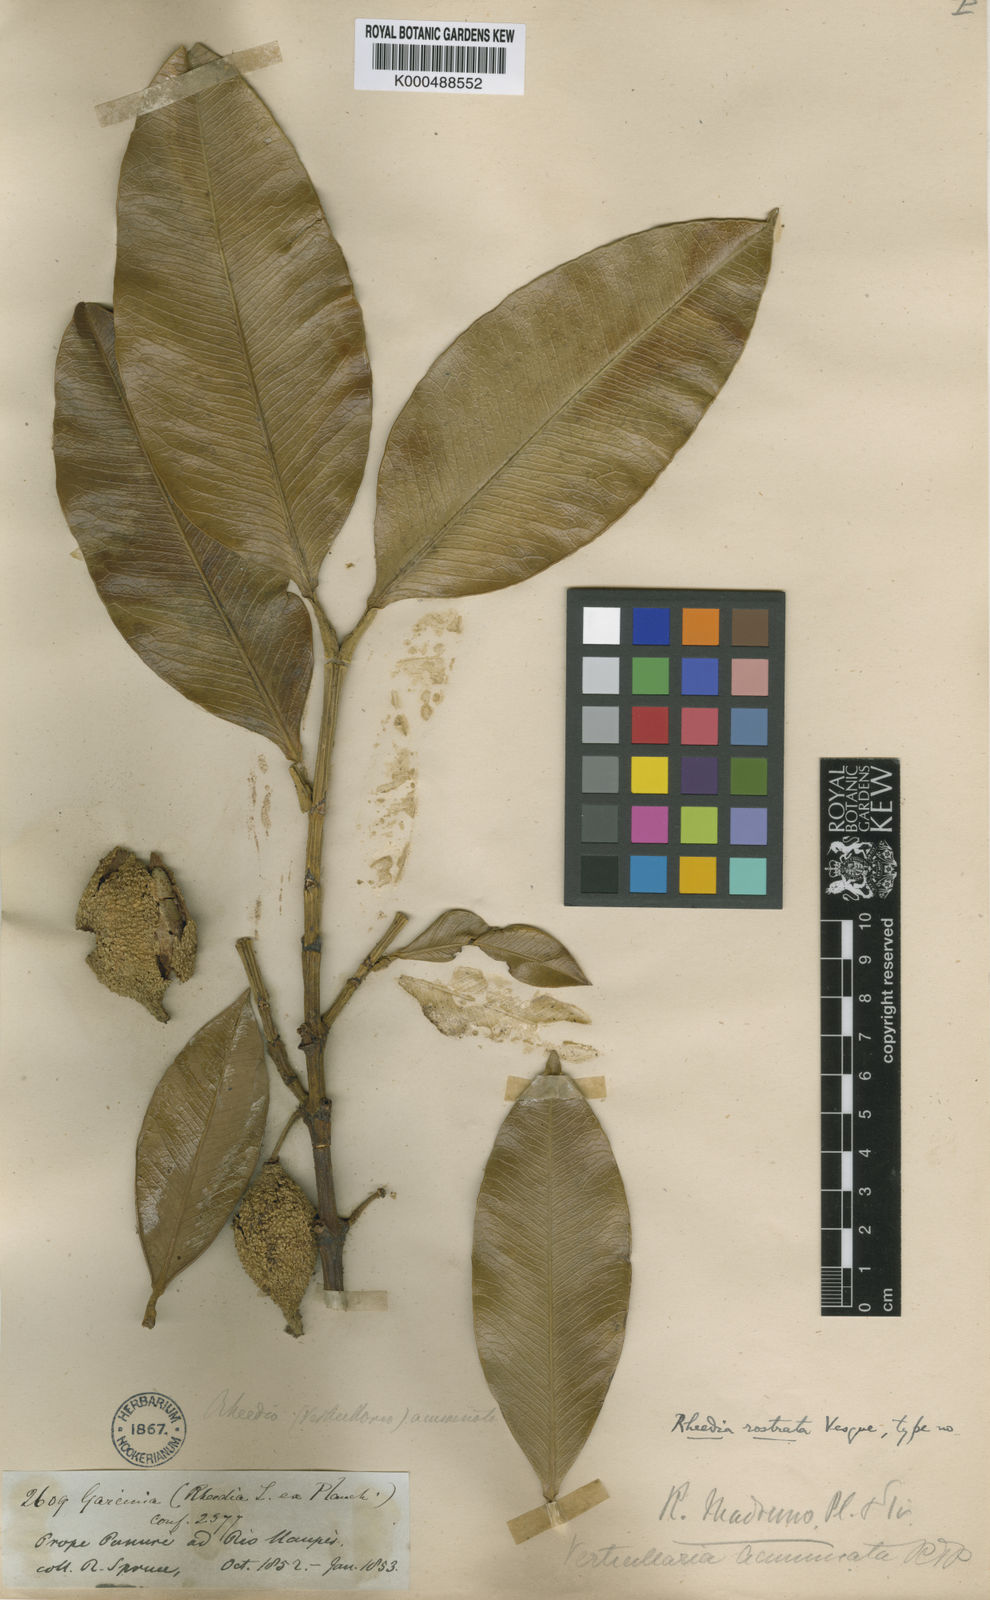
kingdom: Plantae
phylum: Tracheophyta
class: Magnoliopsida
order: Malpighiales
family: Clusiaceae
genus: Garcinia
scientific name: Garcinia
